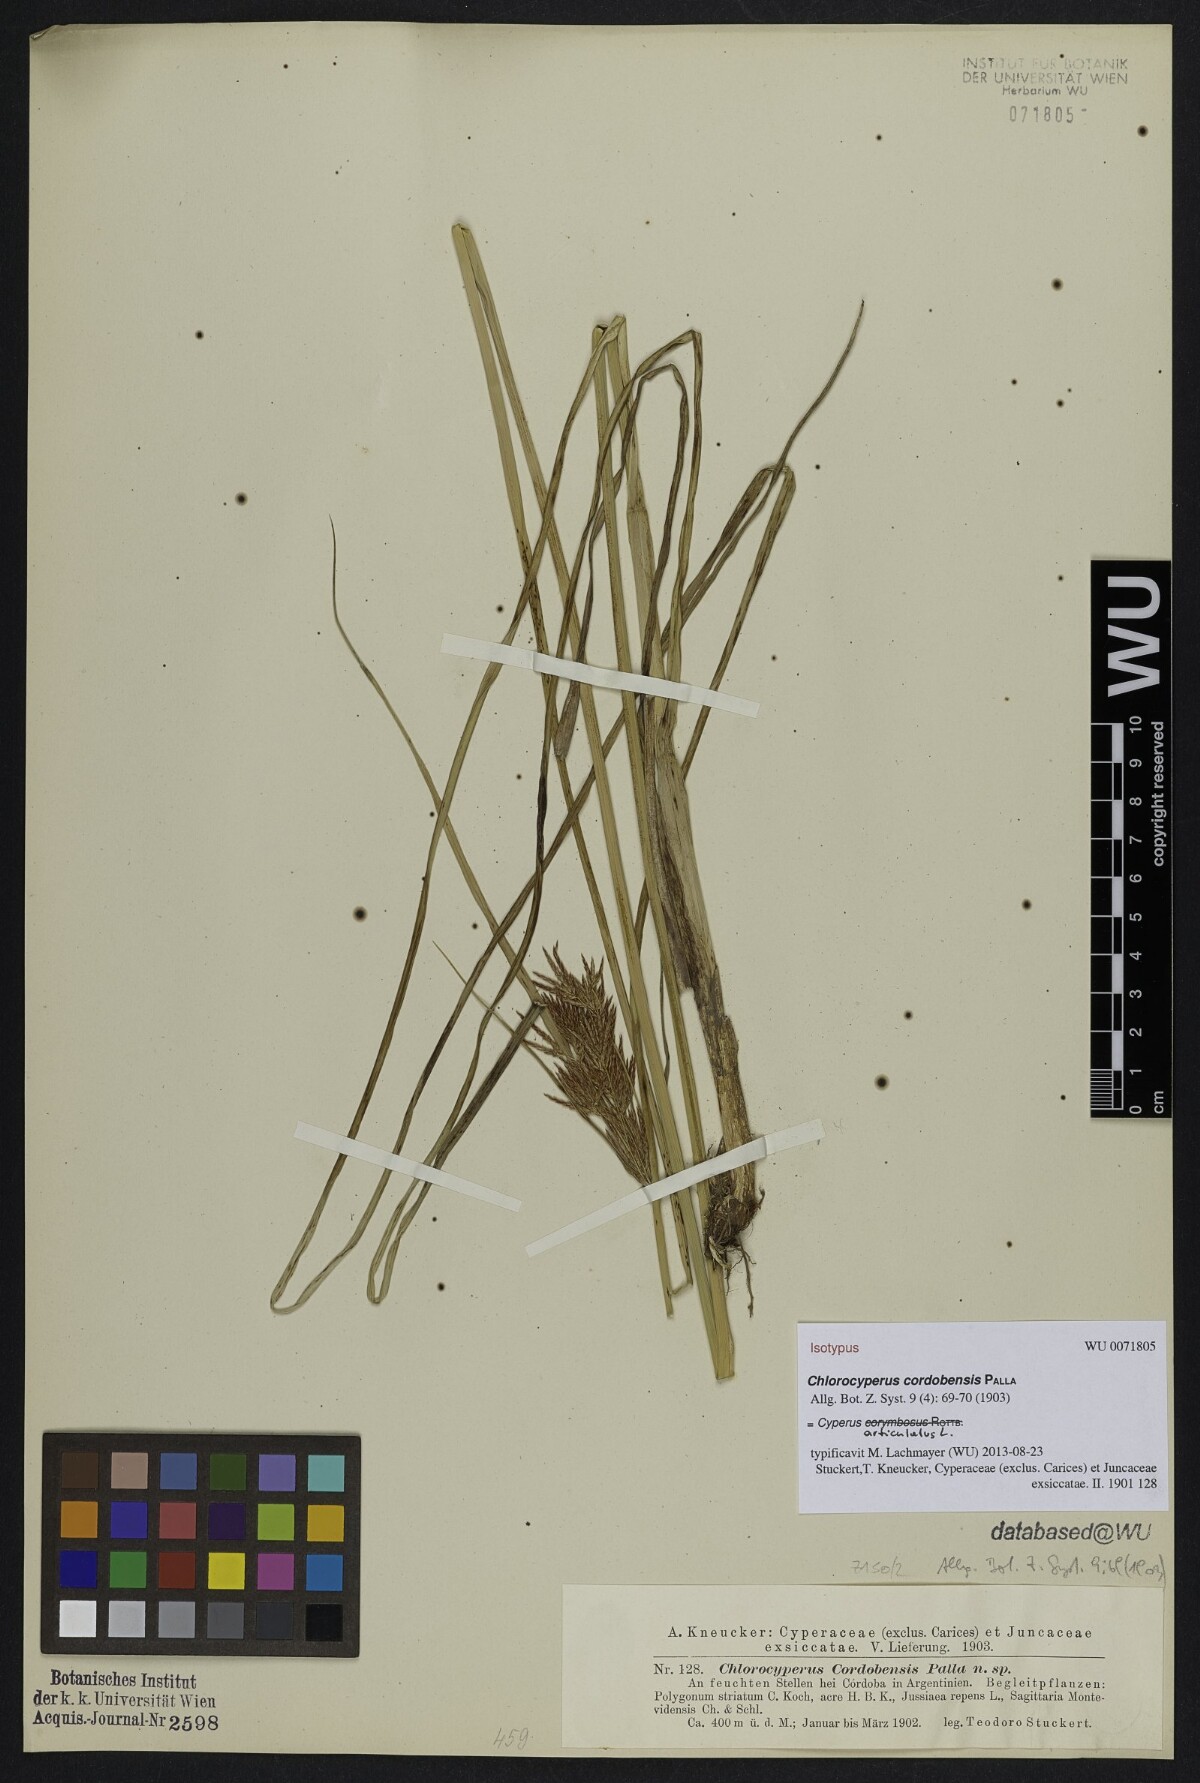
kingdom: Plantae
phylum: Tracheophyta
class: Liliopsida
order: Poales
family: Cyperaceae
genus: Cyperus
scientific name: Cyperus articulatus
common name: Jointed flatsedge
